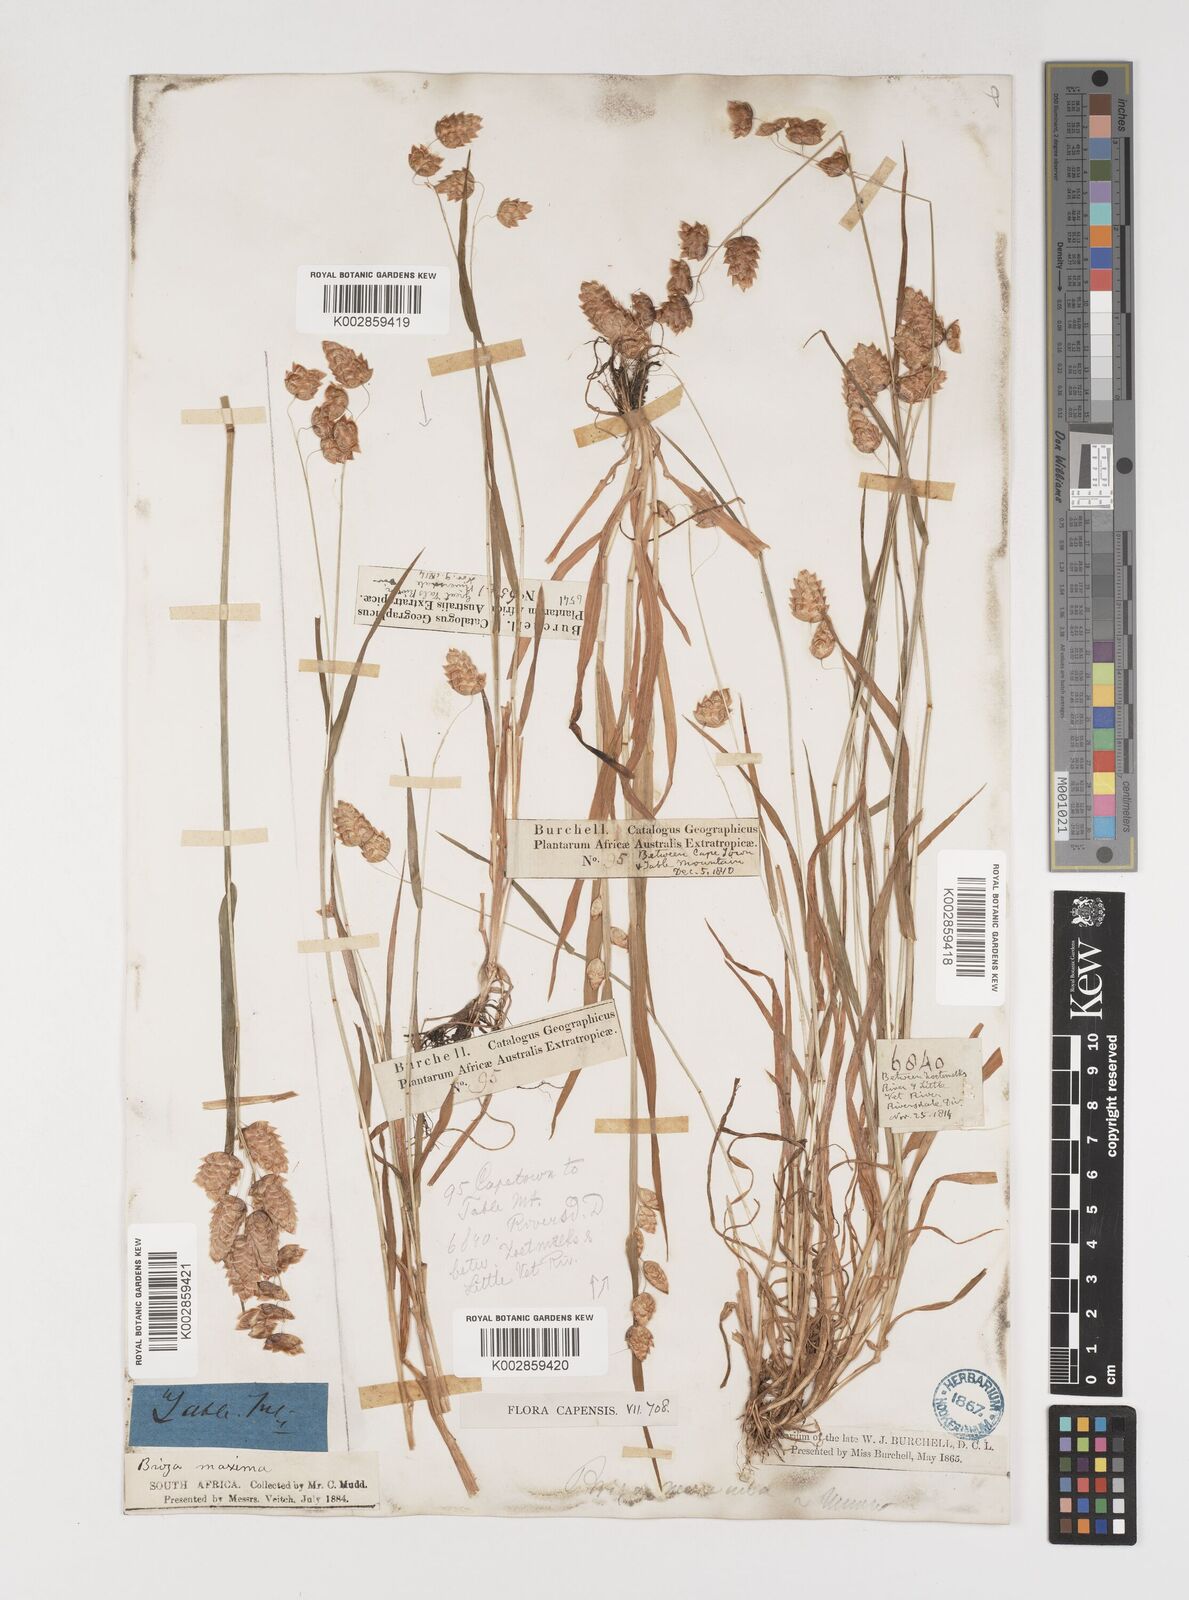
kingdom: Plantae
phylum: Tracheophyta
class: Liliopsida
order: Poales
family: Poaceae
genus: Briza
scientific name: Briza maxima
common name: Big quakinggrass
